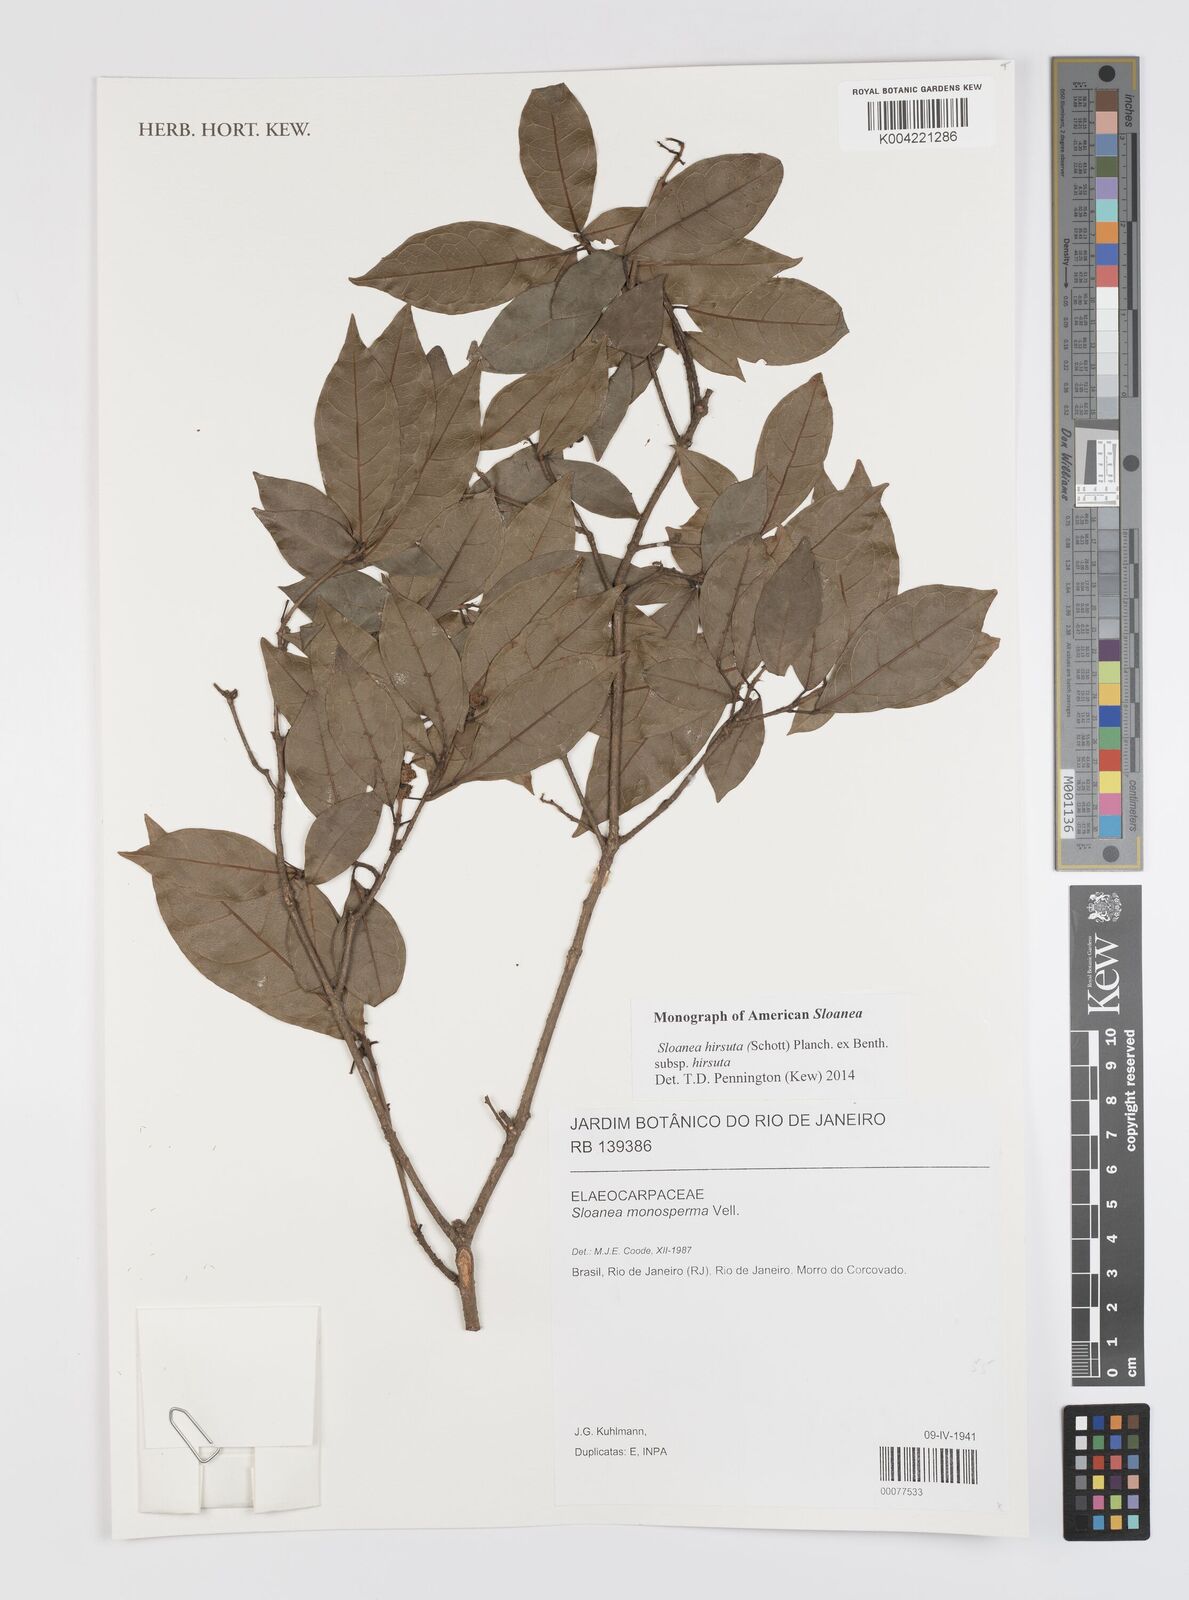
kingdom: Plantae
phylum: Tracheophyta
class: Magnoliopsida
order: Oxalidales
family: Elaeocarpaceae
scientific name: Elaeocarpaceae
